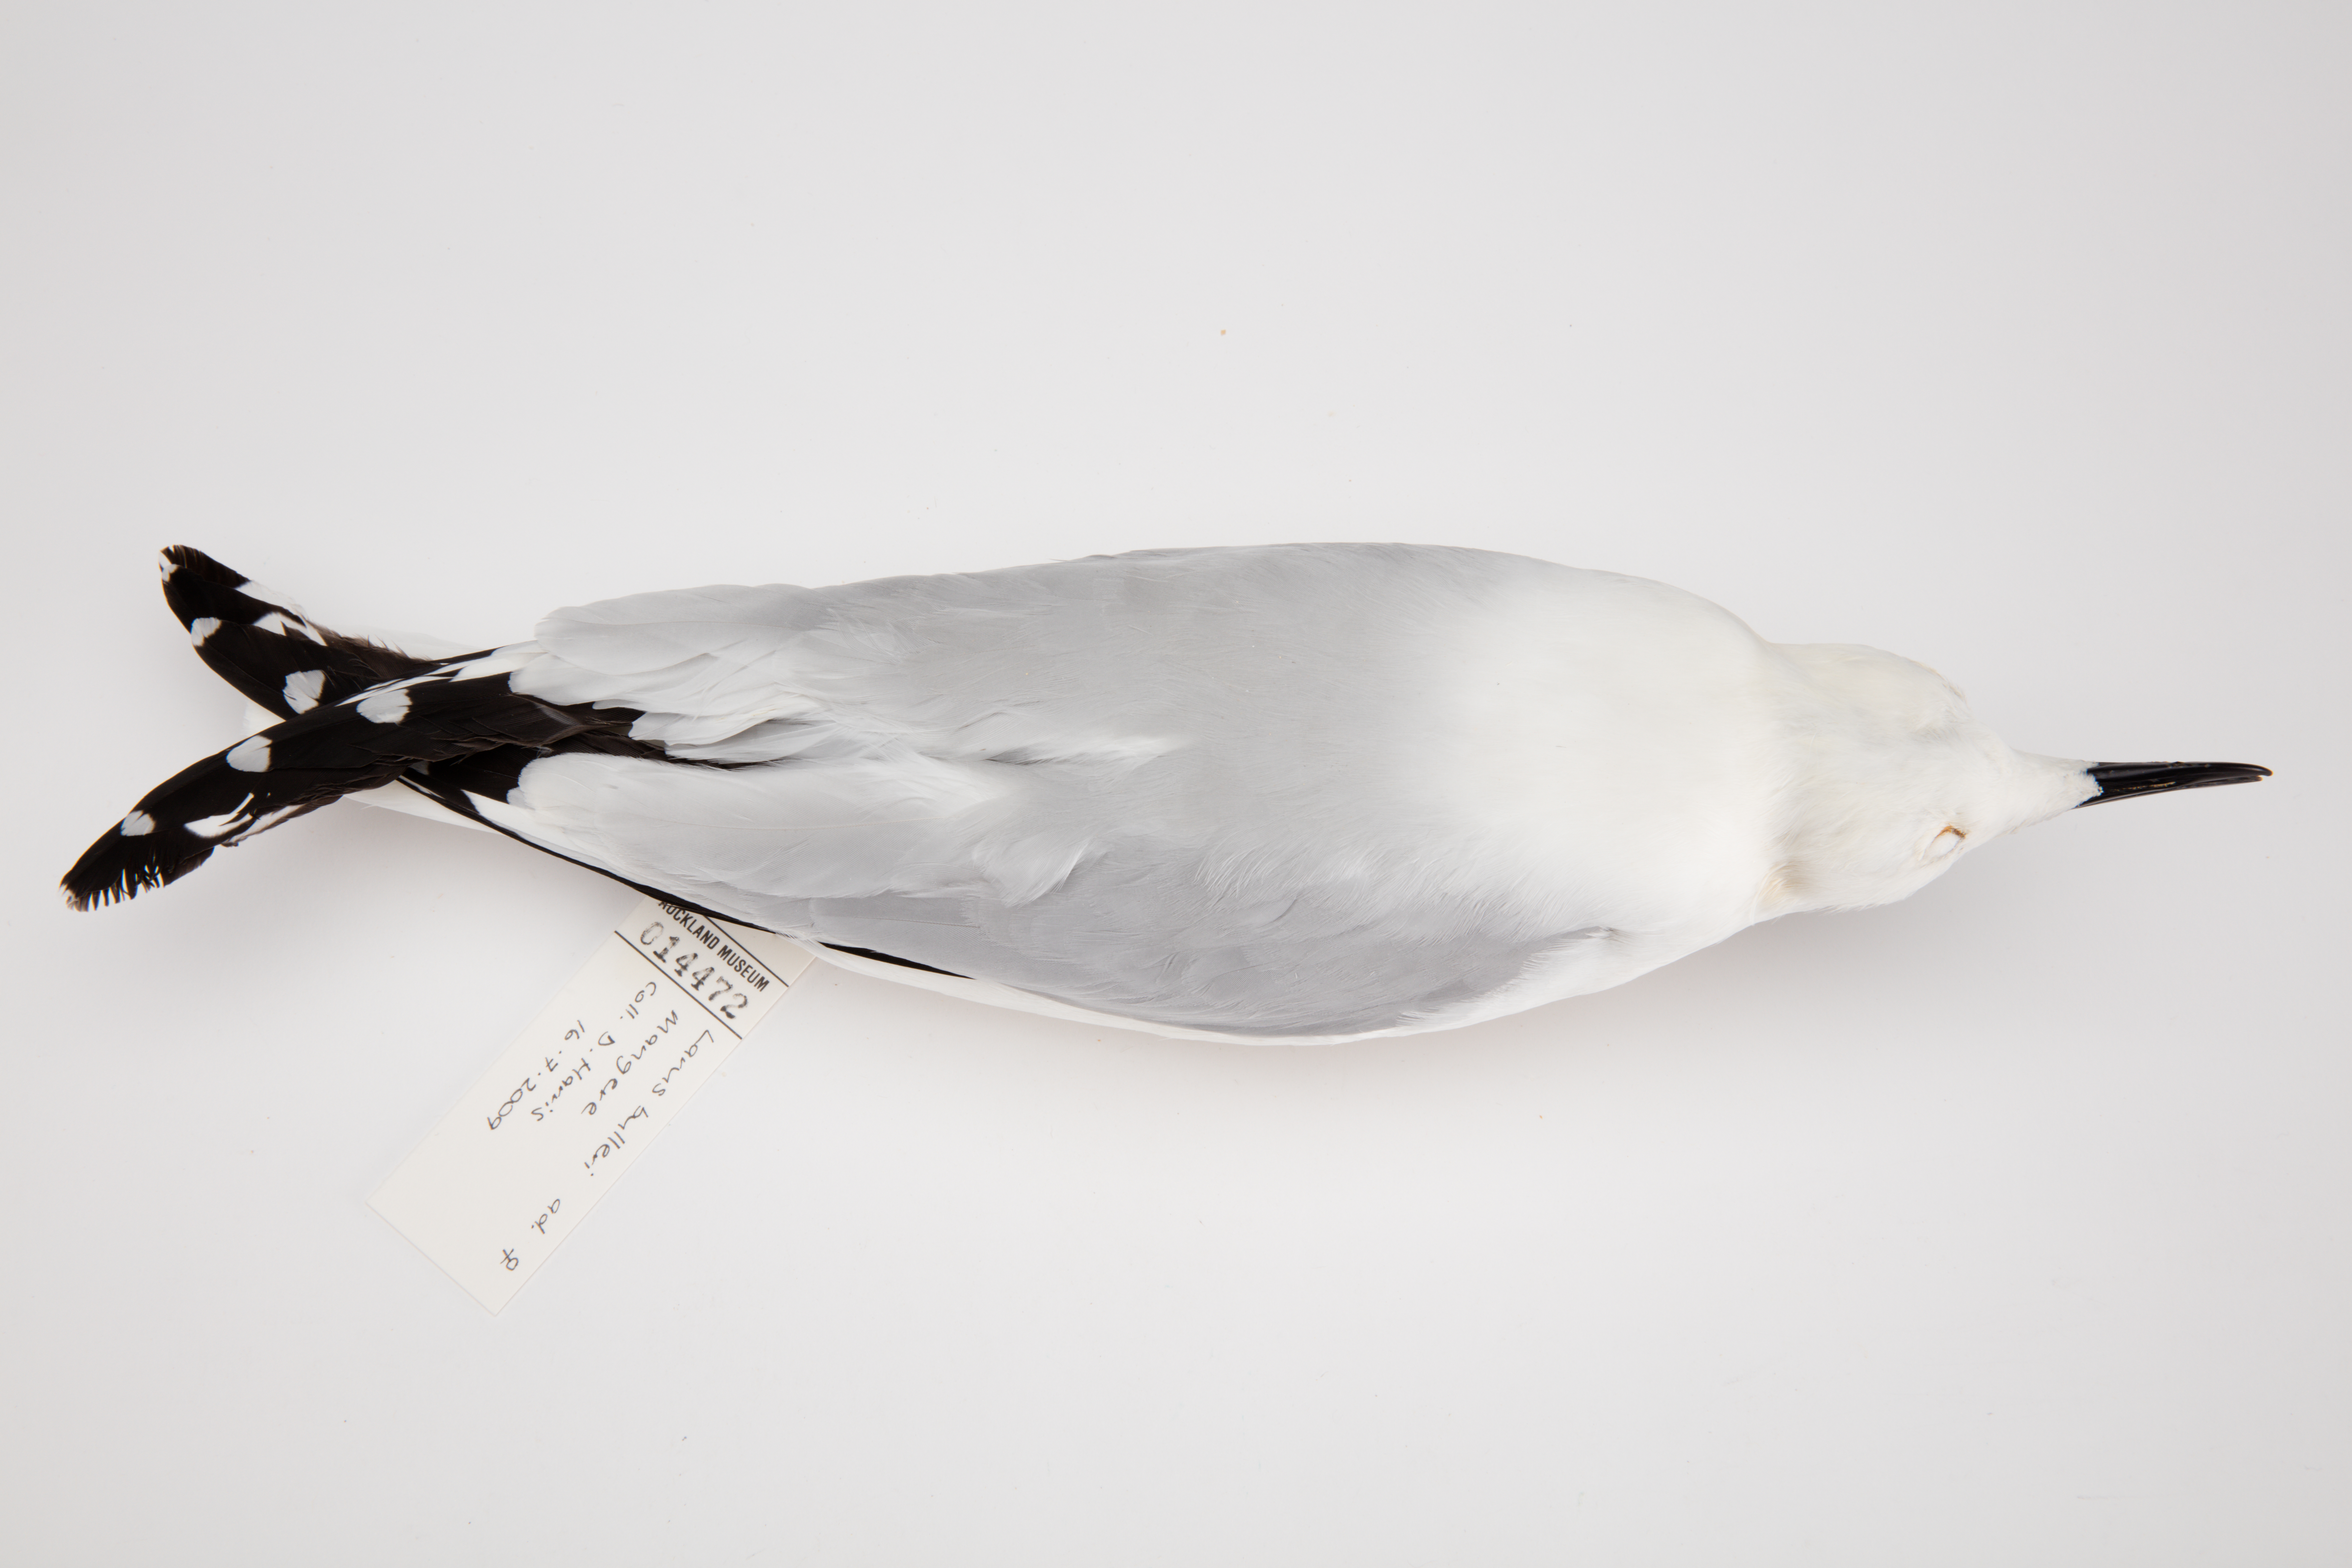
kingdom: Animalia
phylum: Chordata
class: Aves
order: Charadriiformes
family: Laridae
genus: Chroicocephalus
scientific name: Chroicocephalus bulleri
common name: Black-billed gull
